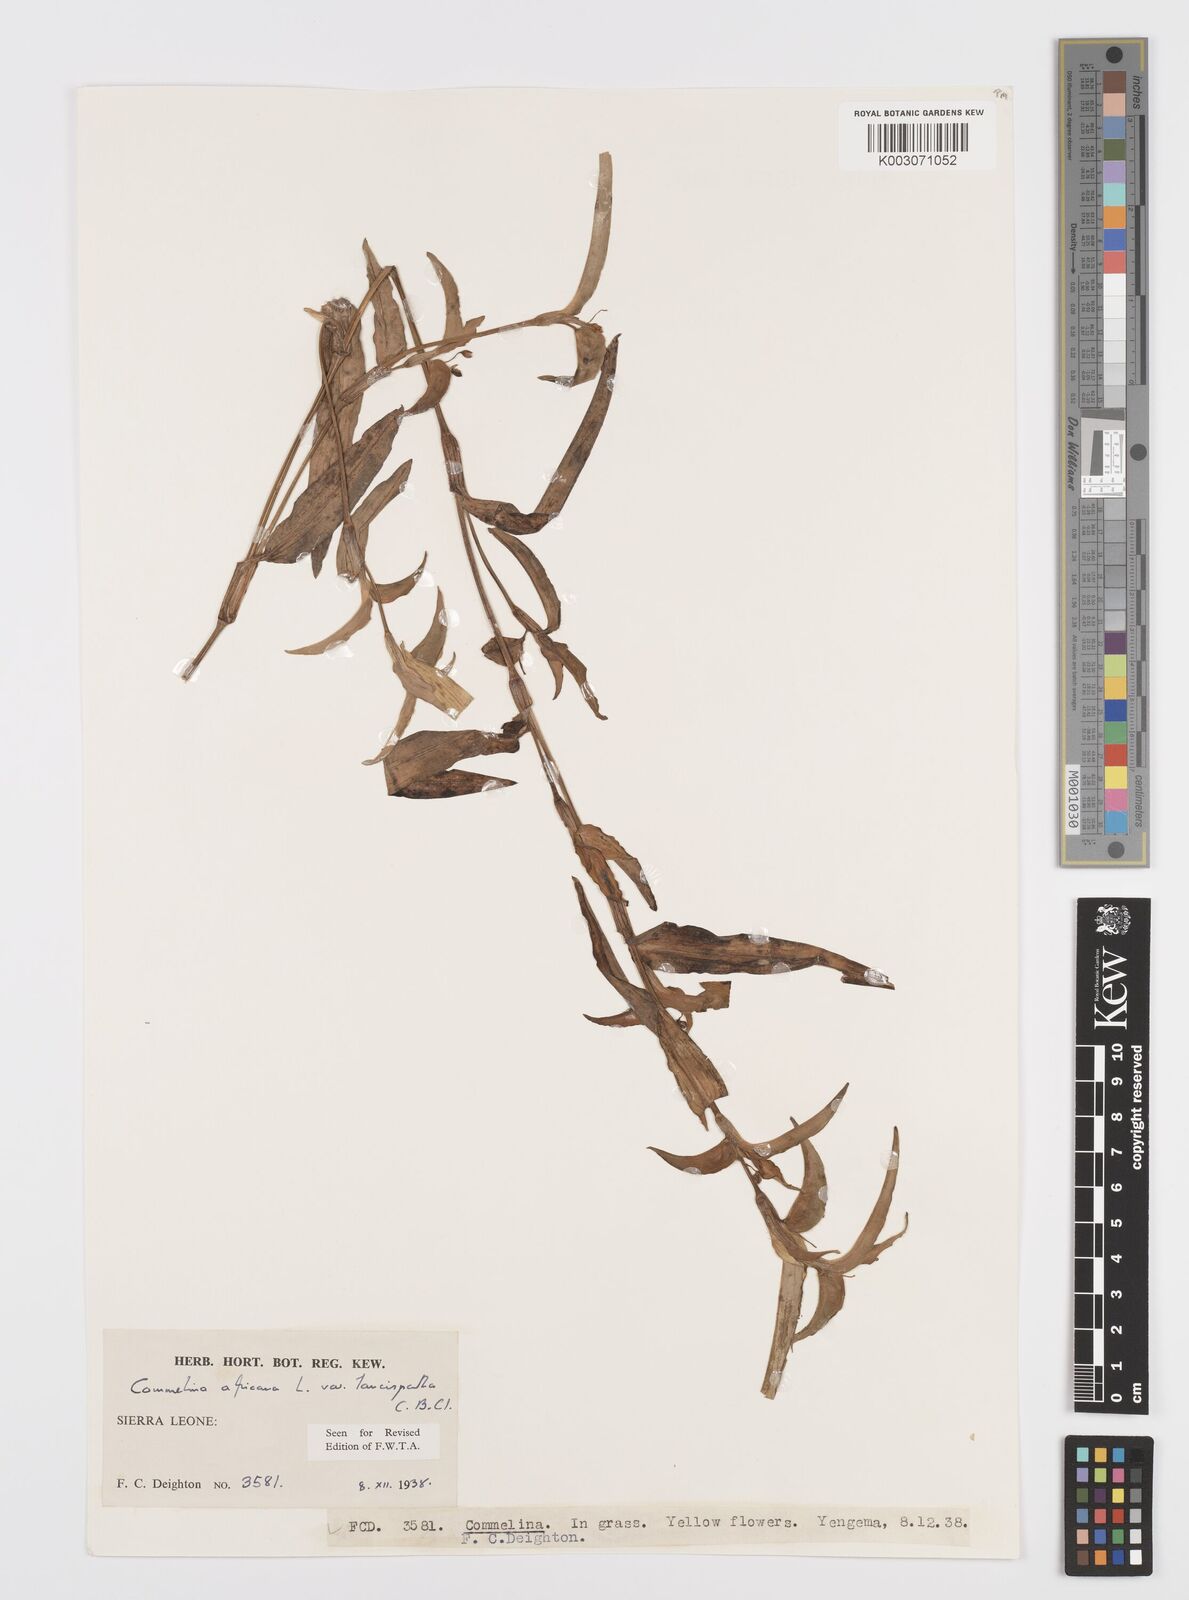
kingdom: Plantae
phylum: Tracheophyta
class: Liliopsida
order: Commelinales
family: Commelinaceae
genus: Commelina
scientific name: Commelina africana
